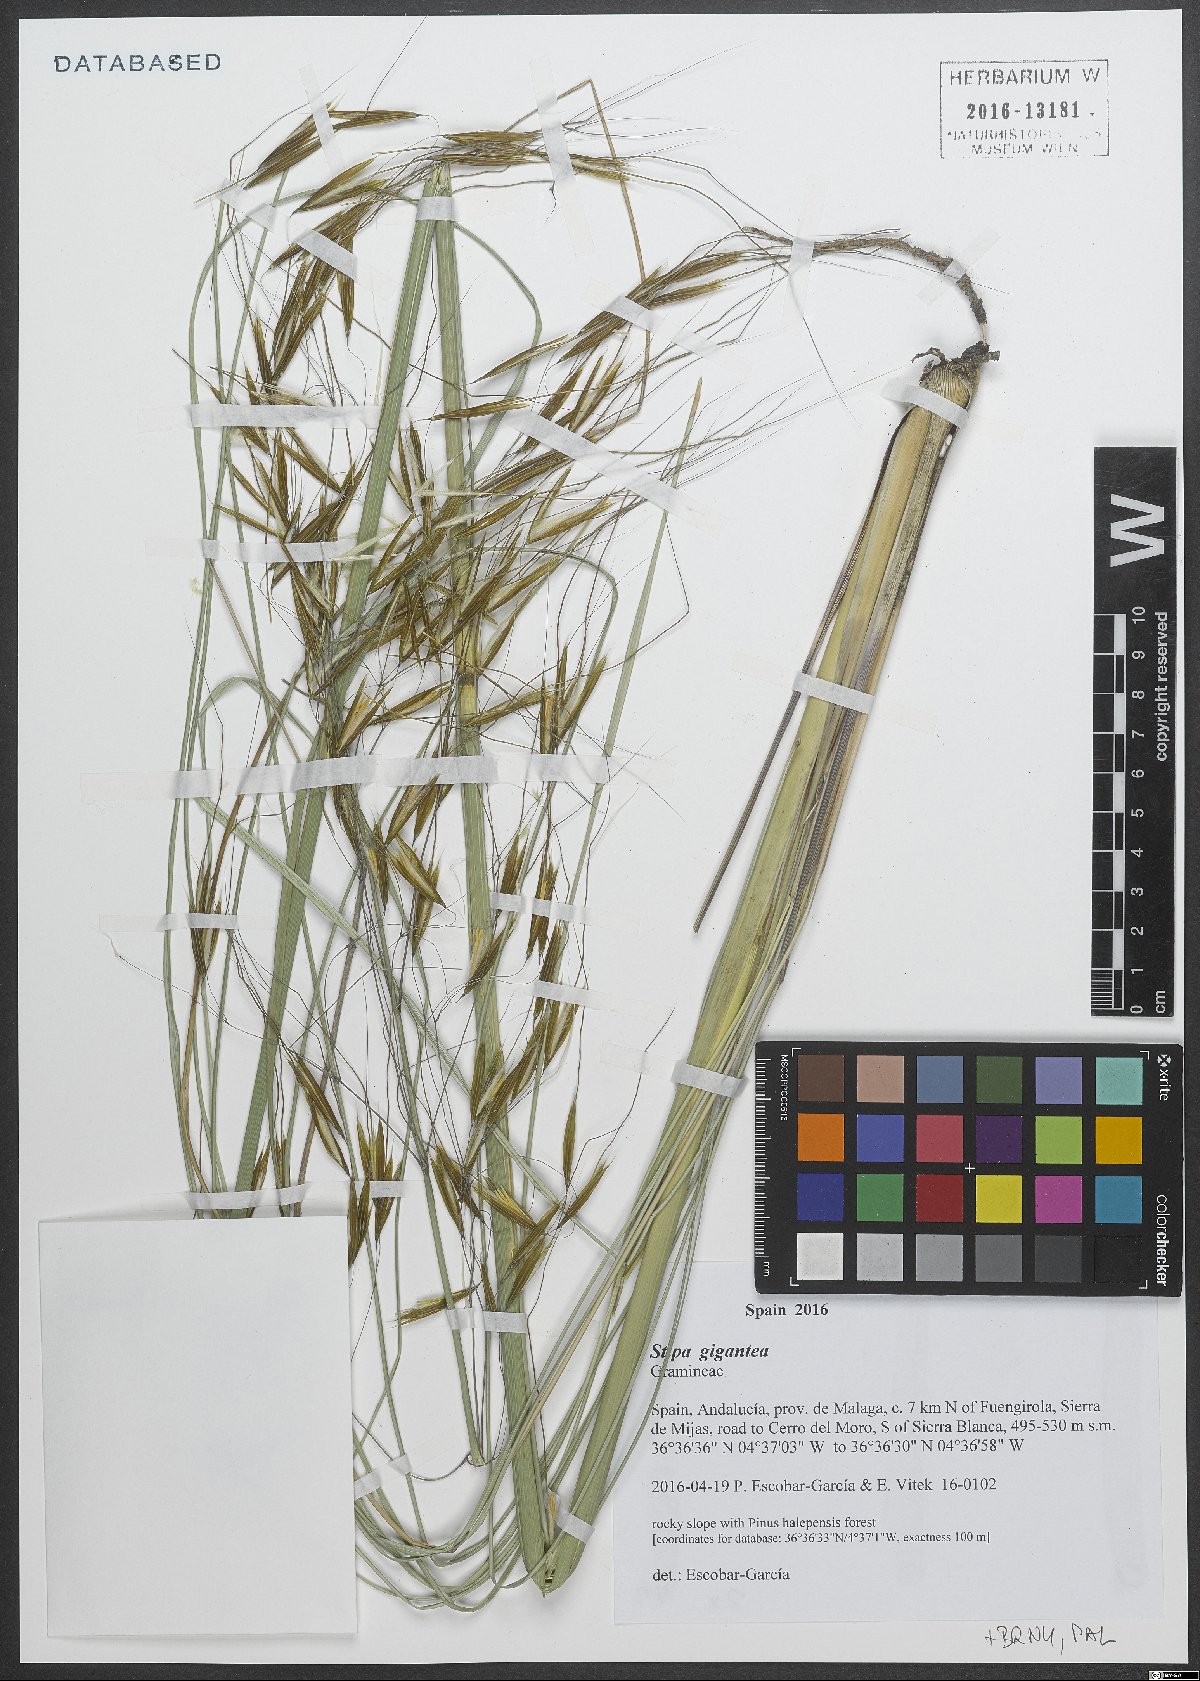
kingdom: Plantae
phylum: Tracheophyta
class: Liliopsida
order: Poales
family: Poaceae
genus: Celtica
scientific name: Celtica gigantea
